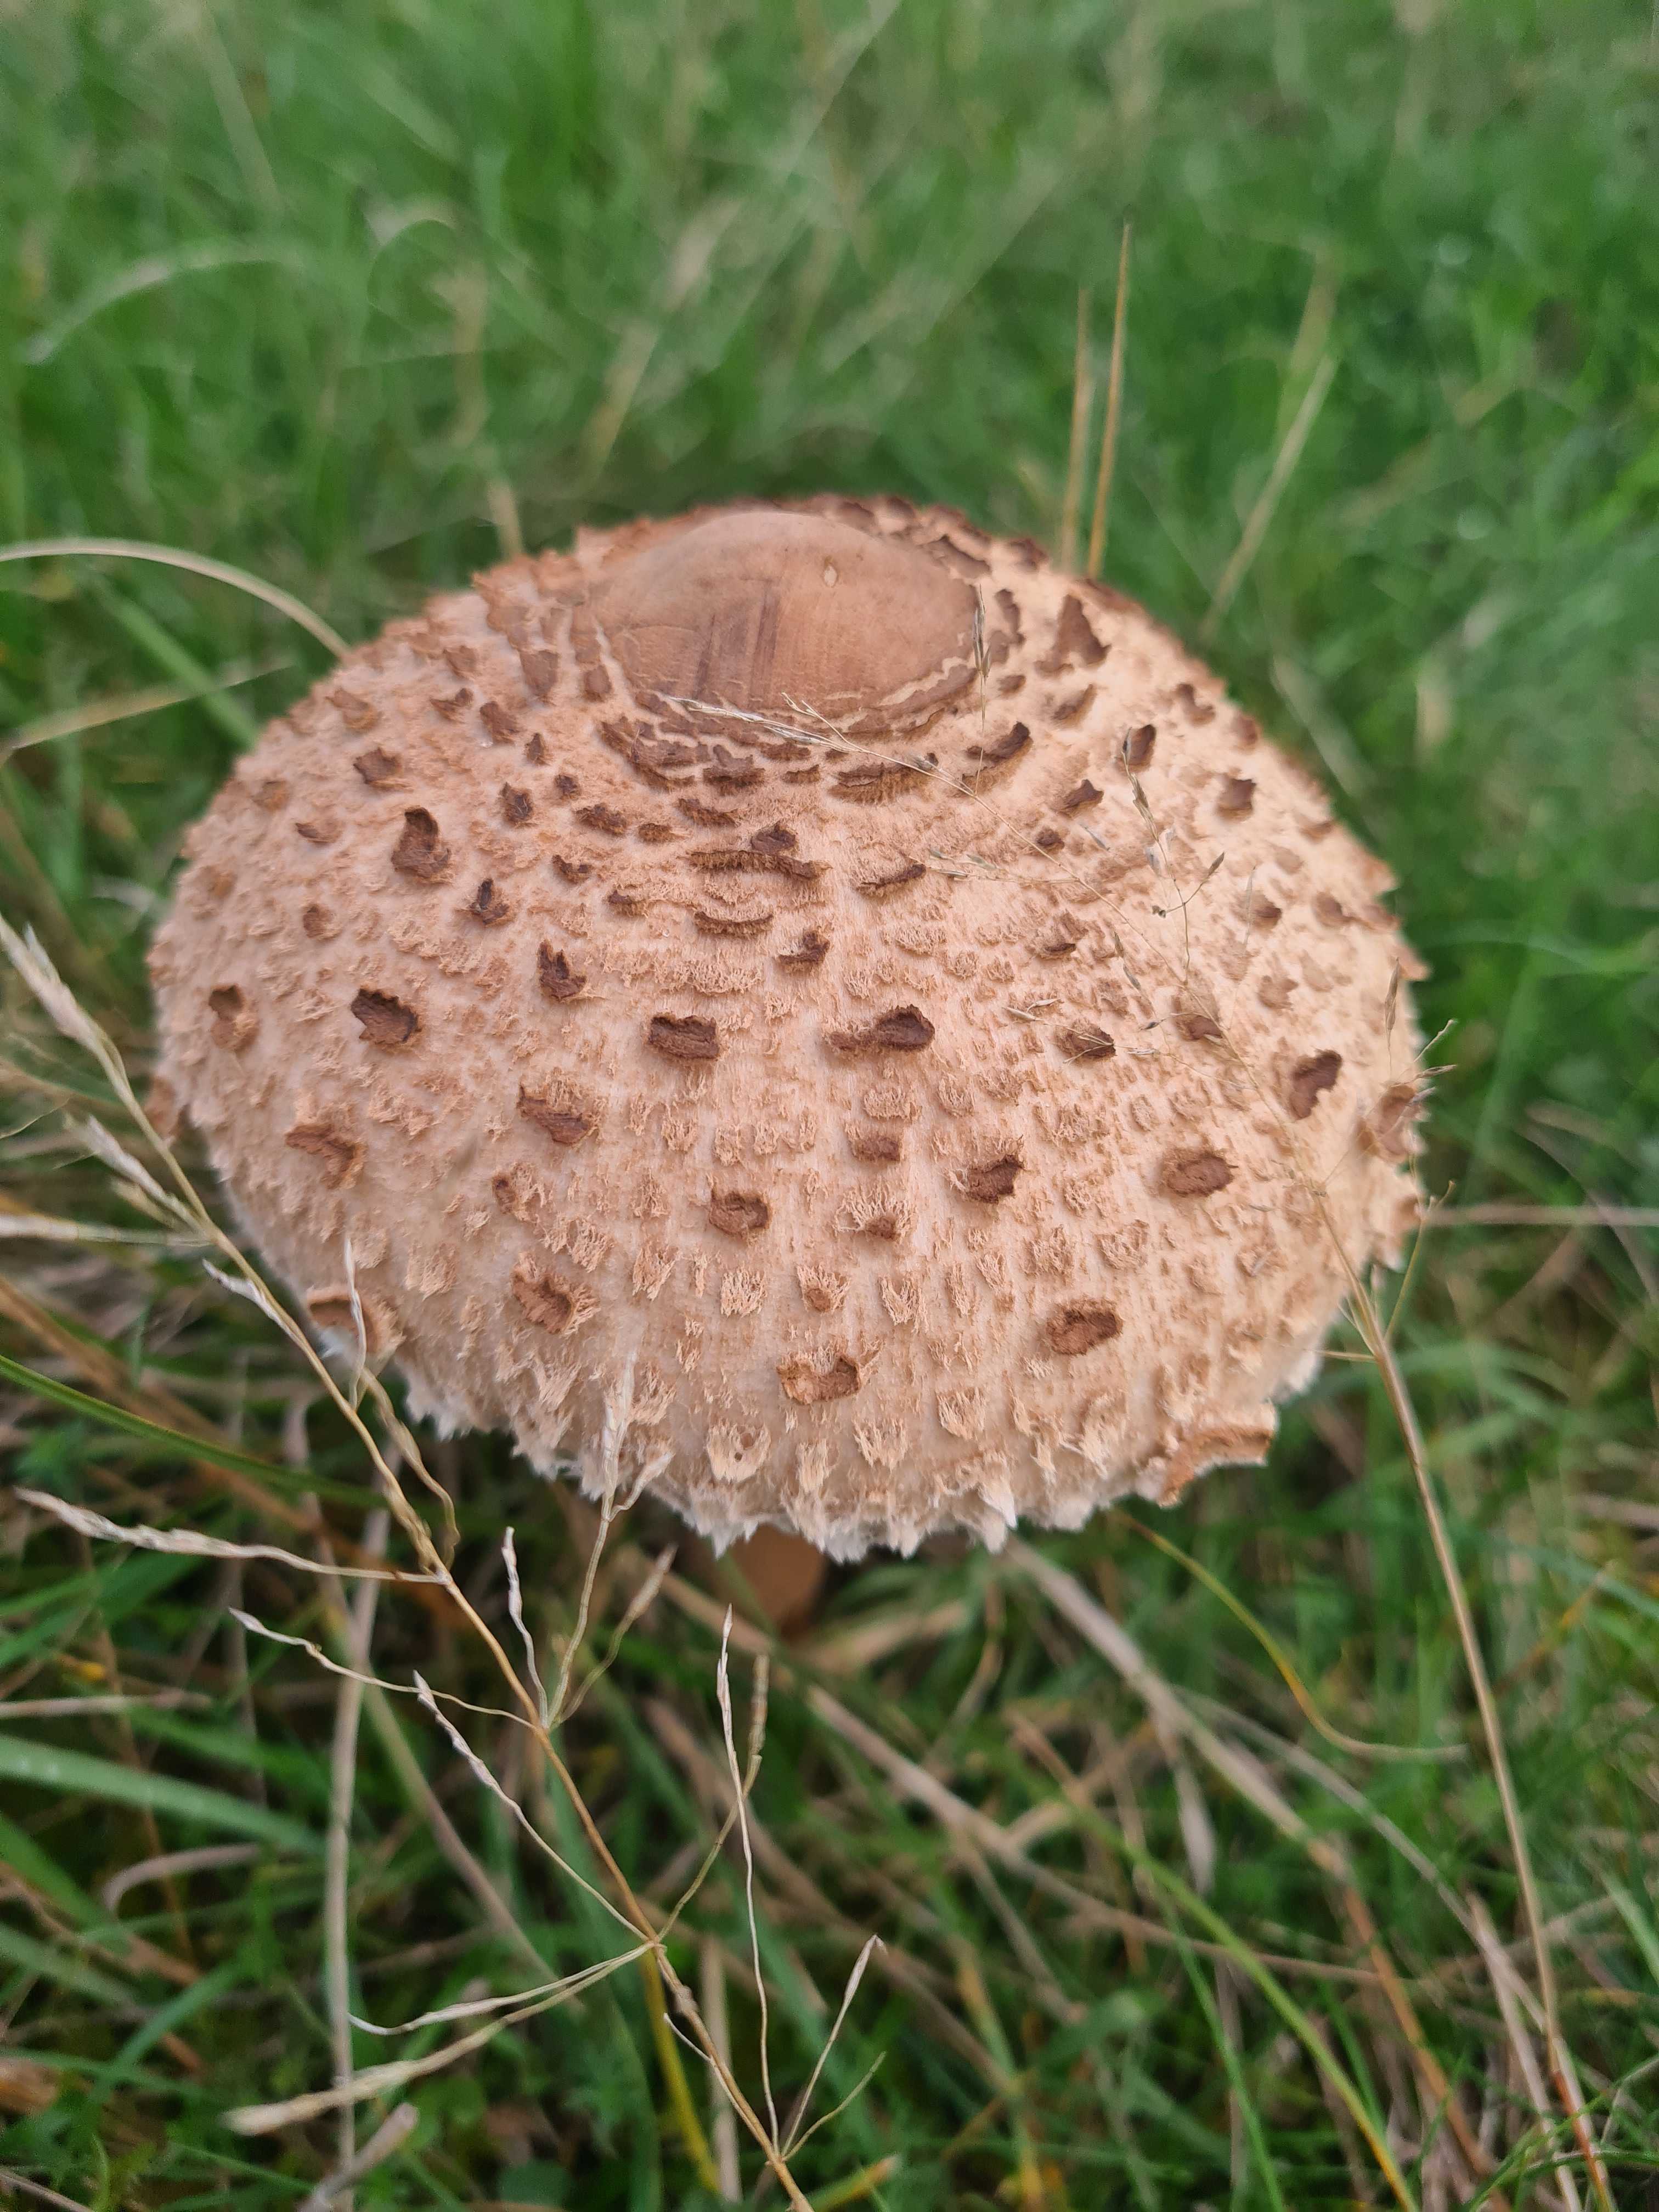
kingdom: Fungi
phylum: Basidiomycota
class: Agaricomycetes
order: Agaricales
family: Agaricaceae
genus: Macrolepiota
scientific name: Macrolepiota procera
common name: stor kæmpeparasolhat
